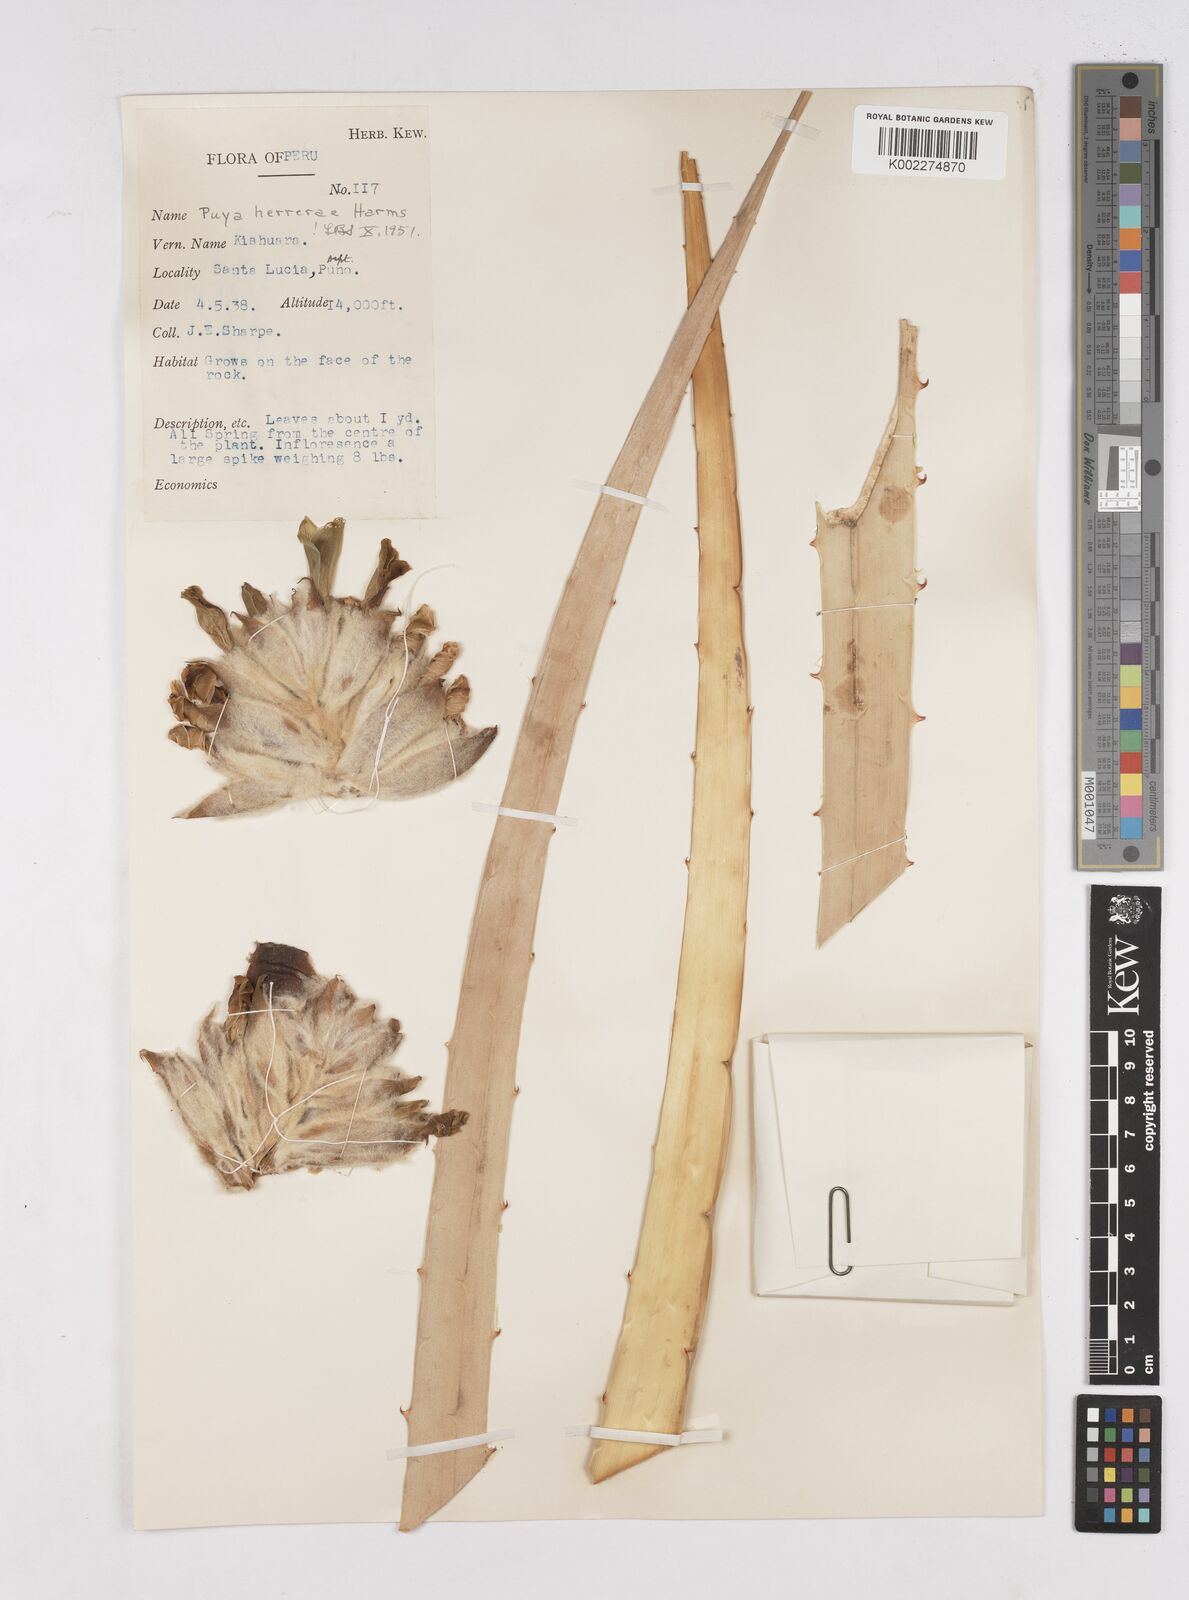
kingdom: Plantae
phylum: Tracheophyta
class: Liliopsida
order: Poales
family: Bromeliaceae
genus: Puya
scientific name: Puya herrerae
